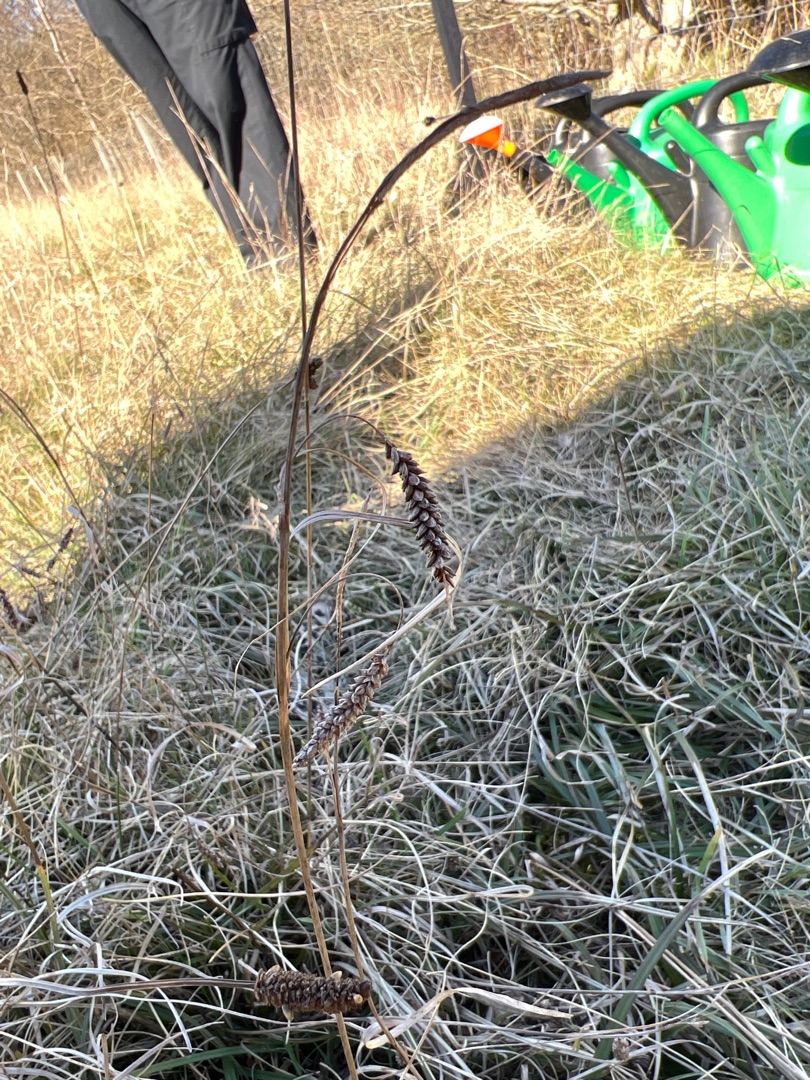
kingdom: Plantae
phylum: Tracheophyta
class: Liliopsida
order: Poales
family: Cyperaceae
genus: Carex
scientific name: Carex flacca
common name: Blågrøn star
